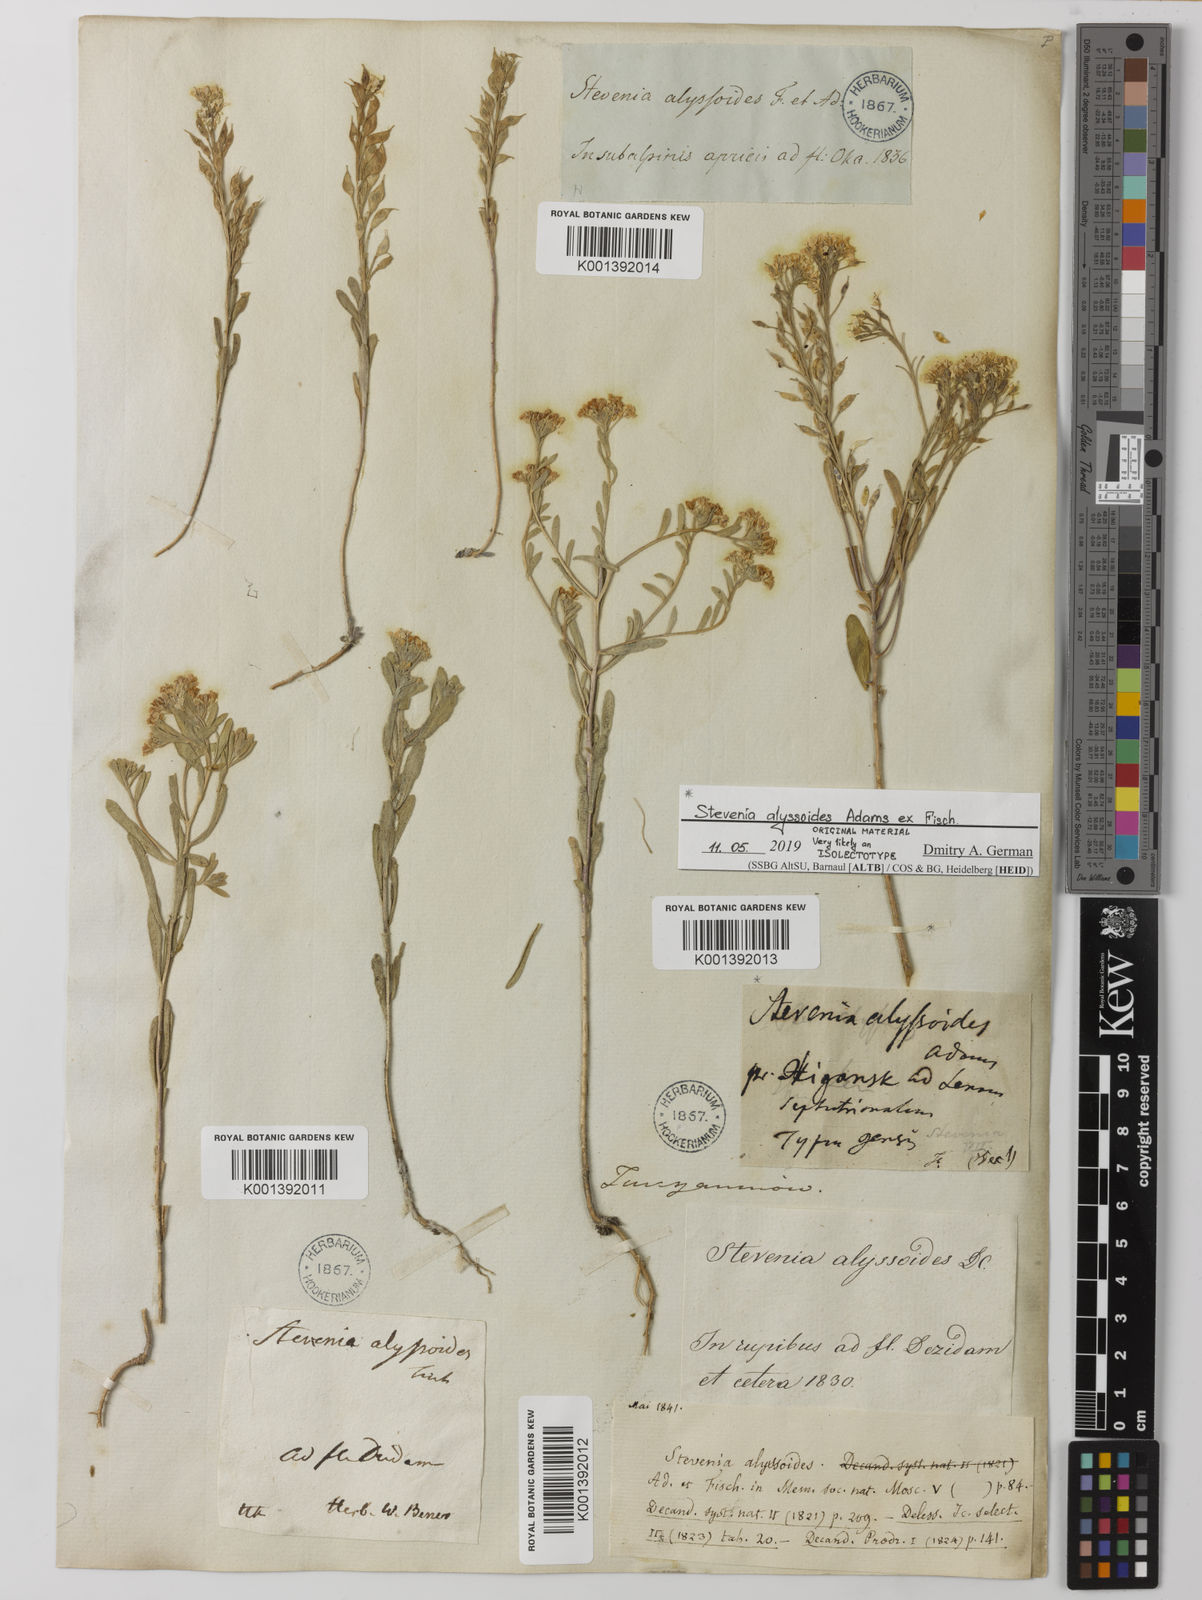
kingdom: Plantae
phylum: Tracheophyta
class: Magnoliopsida
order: Brassicales
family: Brassicaceae
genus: Stevenia
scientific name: Stevenia alyssoides
